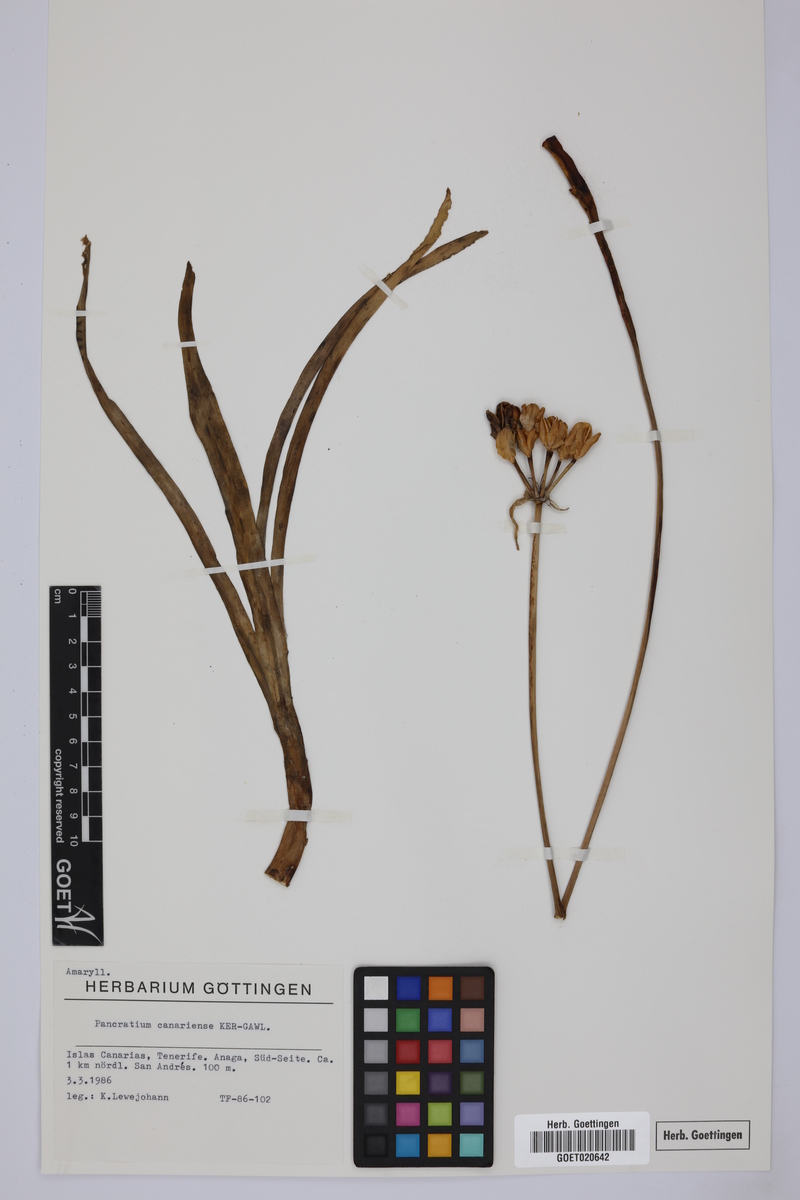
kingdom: Plantae
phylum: Tracheophyta
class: Liliopsida
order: Asparagales
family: Amaryllidaceae
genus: Pancratium
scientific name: Pancratium canariense
